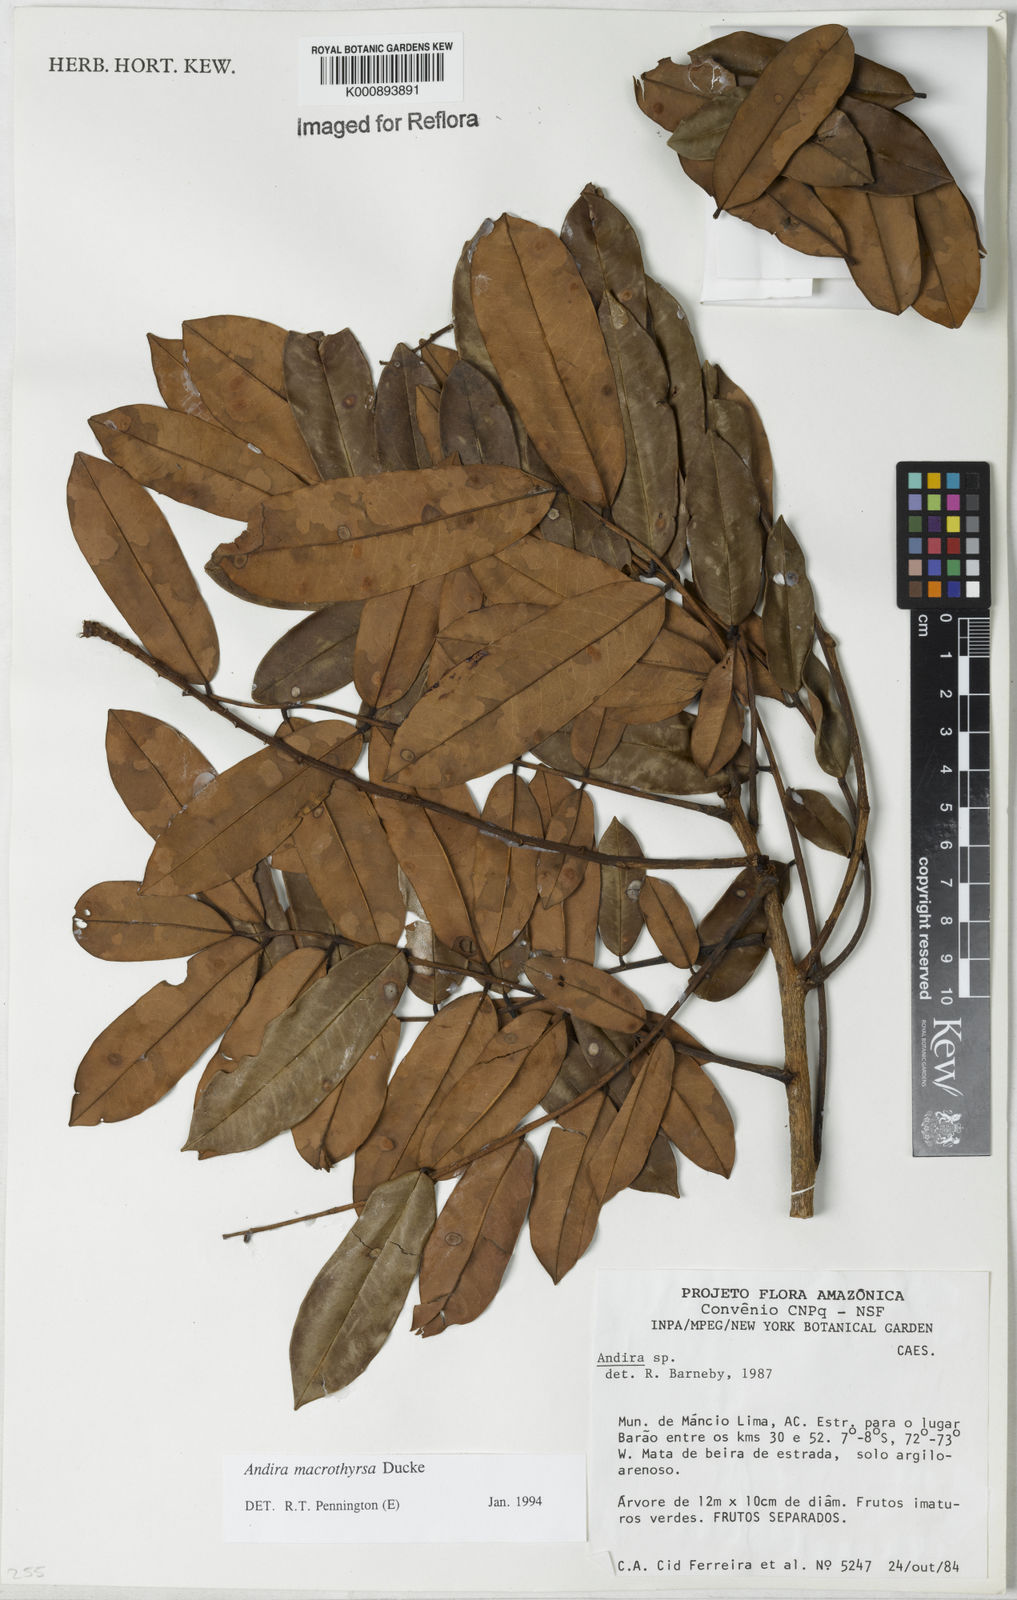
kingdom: Plantae
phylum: Tracheophyta
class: Magnoliopsida
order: Fabales
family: Fabaceae
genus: Andira
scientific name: Andira macrothyrsa
